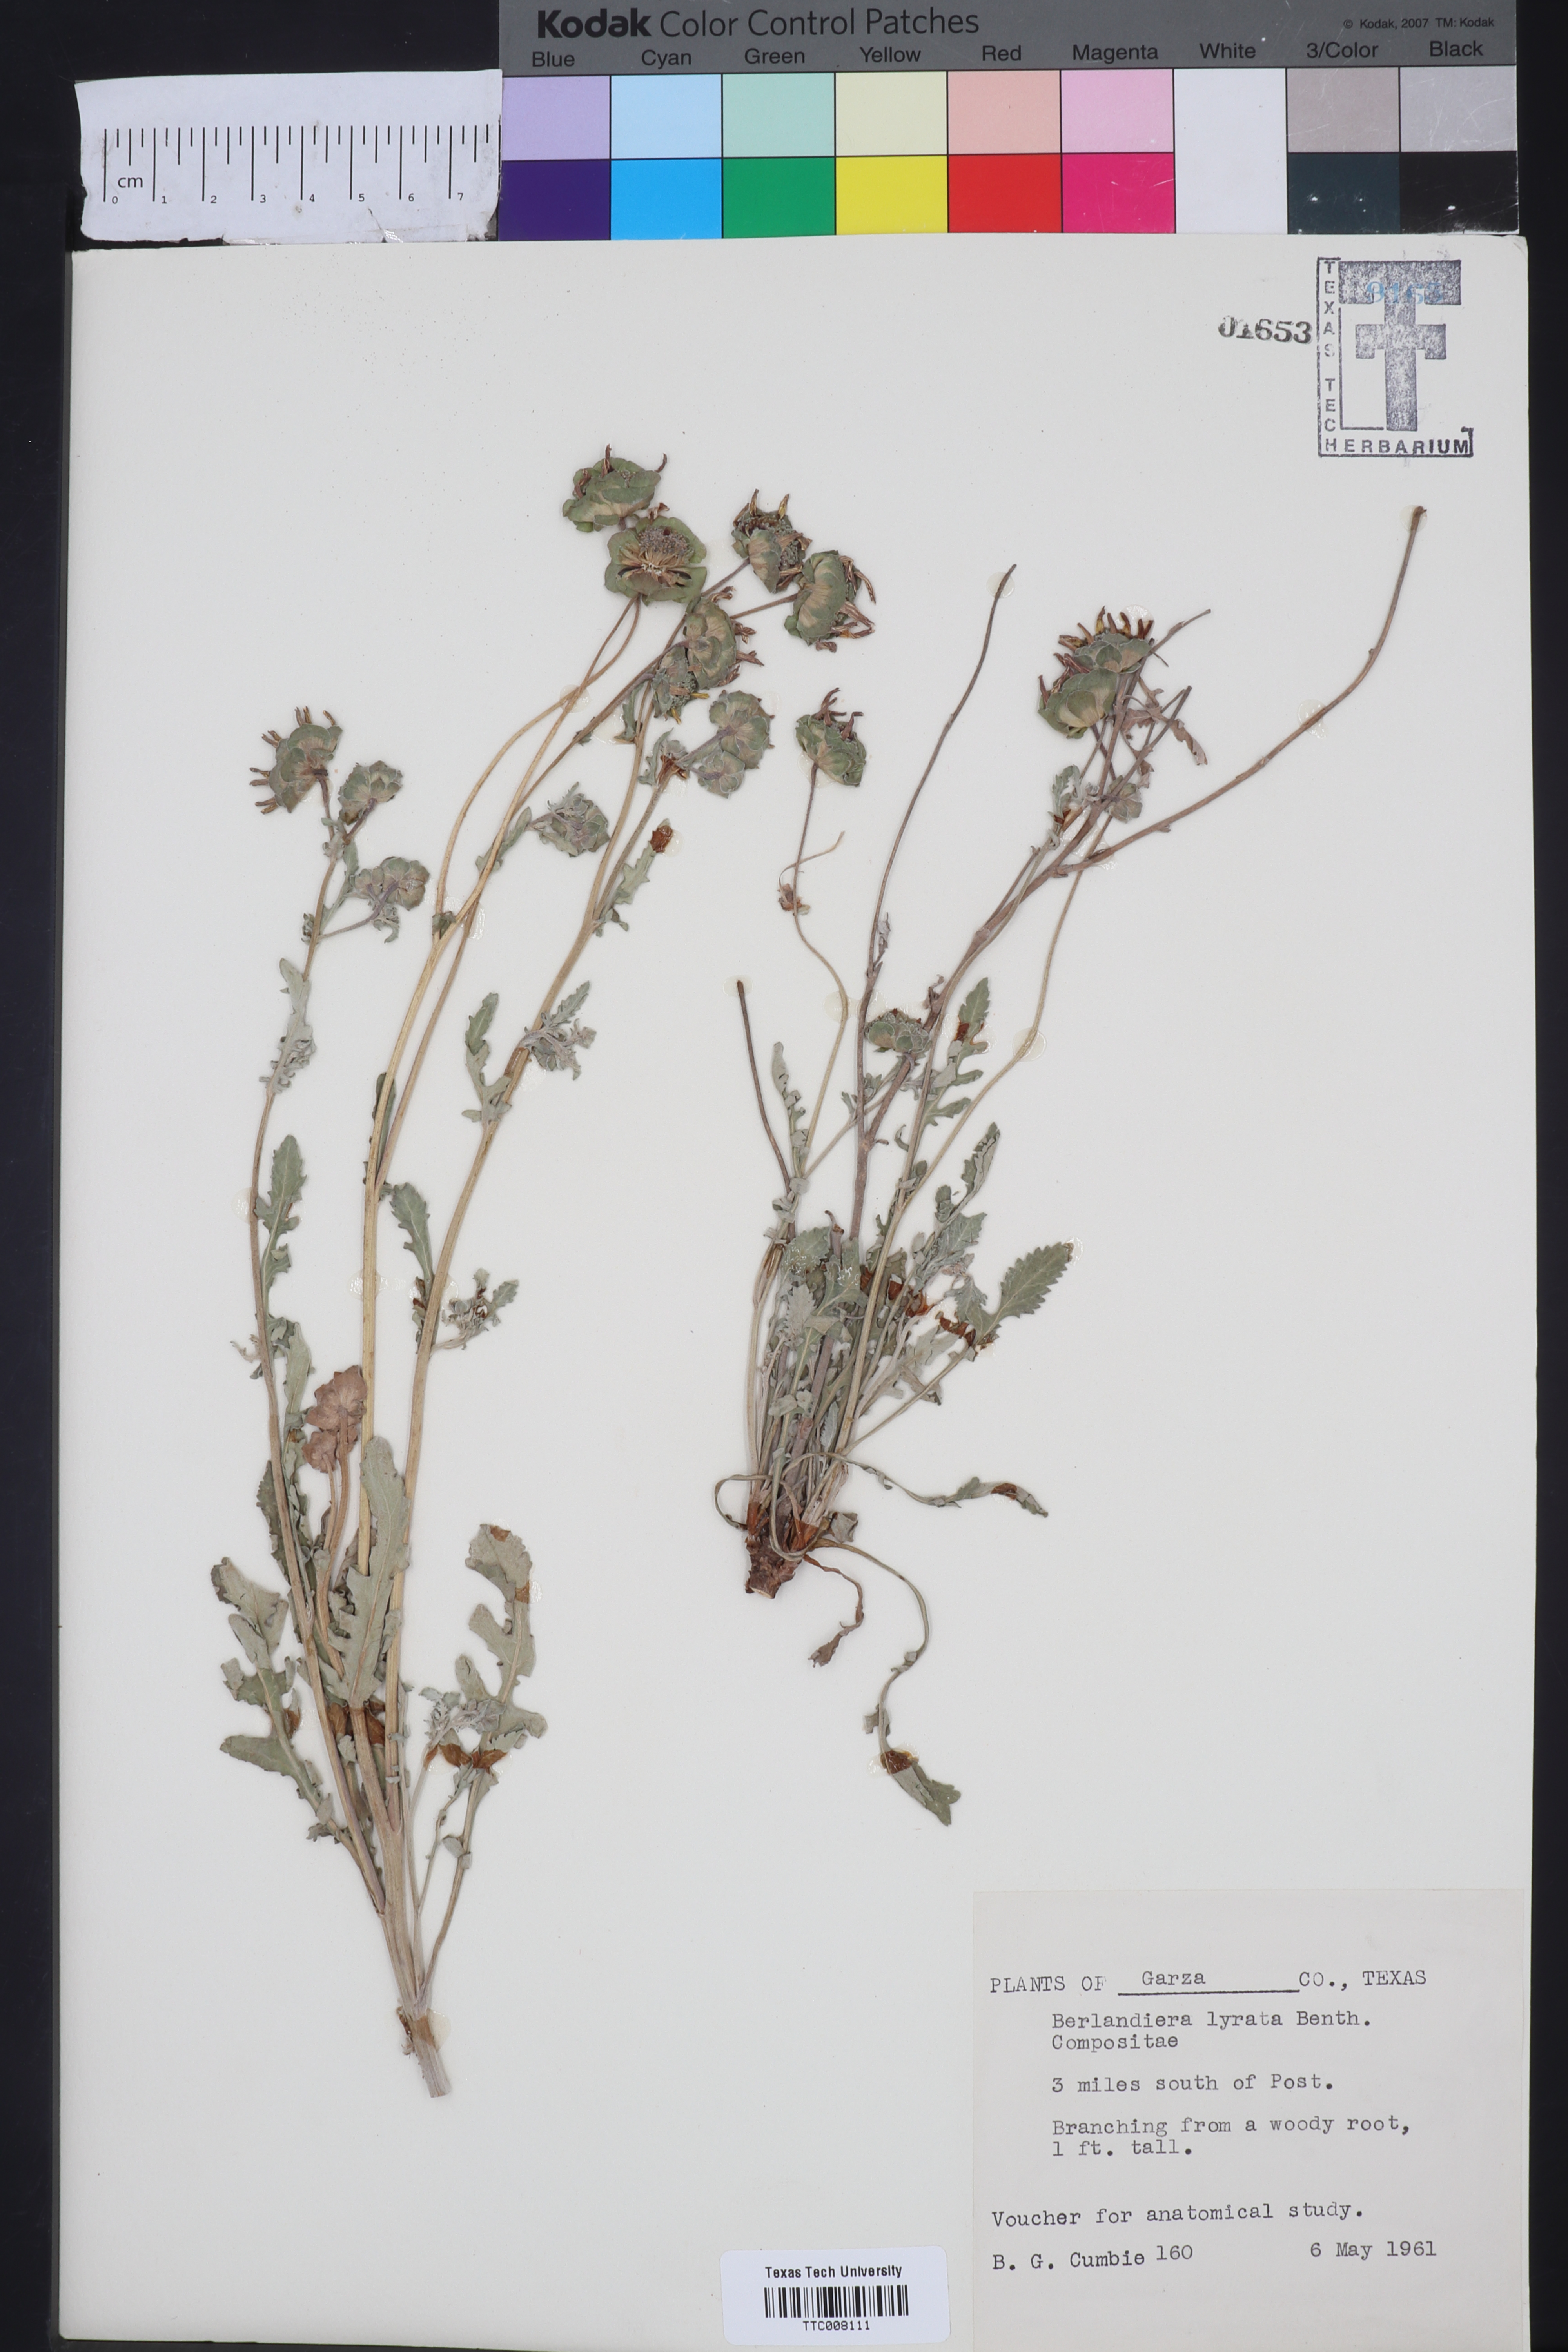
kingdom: Plantae
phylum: Tracheophyta
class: Magnoliopsida
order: Asterales
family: Asteraceae
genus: Berlandiera
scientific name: Berlandiera lyrata
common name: Chocolate-flower
